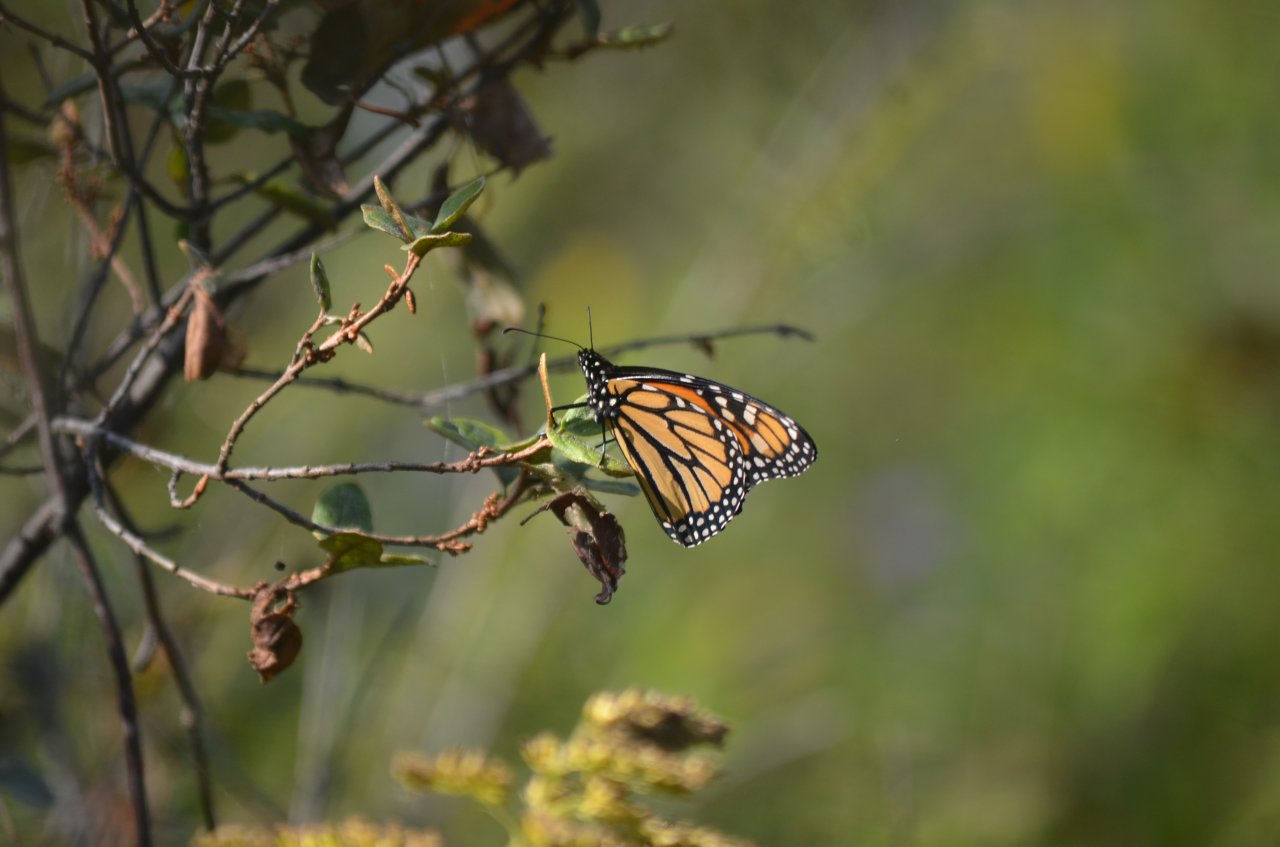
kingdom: Animalia
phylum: Arthropoda
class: Insecta
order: Lepidoptera
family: Nymphalidae
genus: Danaus
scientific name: Danaus plexippus
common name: Monarch
